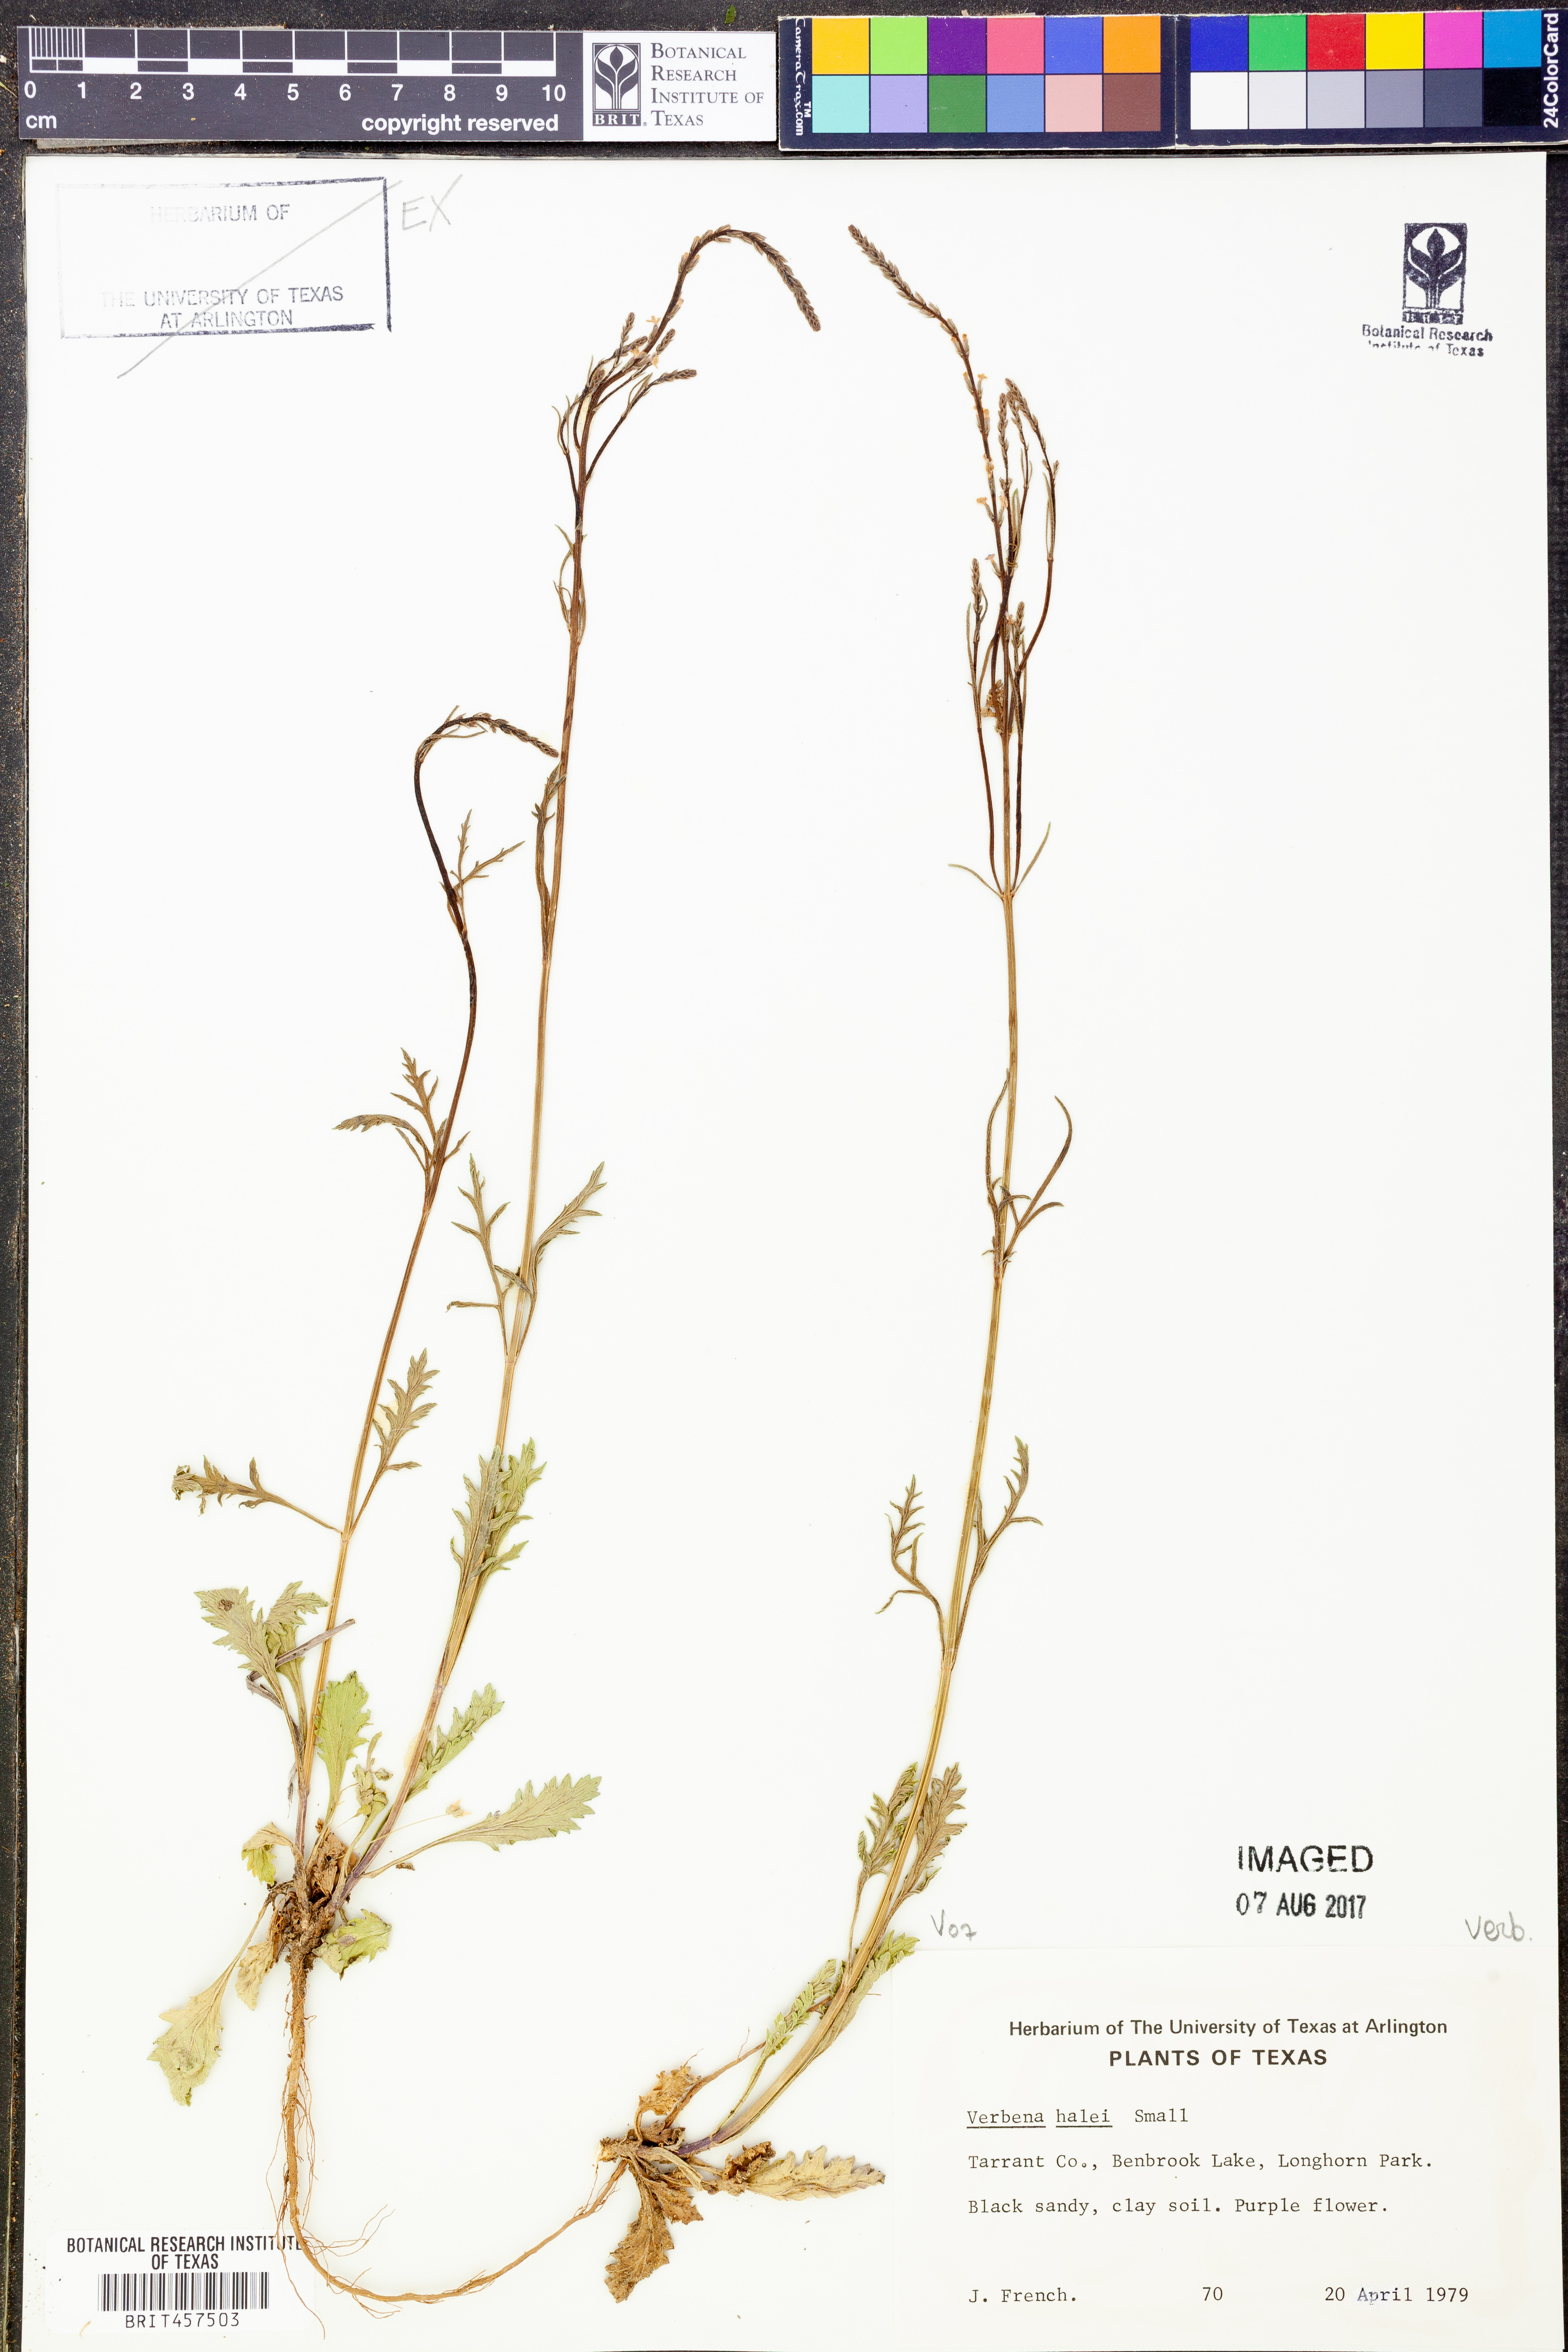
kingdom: Plantae
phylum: Tracheophyta
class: Magnoliopsida
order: Lamiales
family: Verbenaceae
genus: Verbena
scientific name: Verbena halei
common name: Texas vervain
